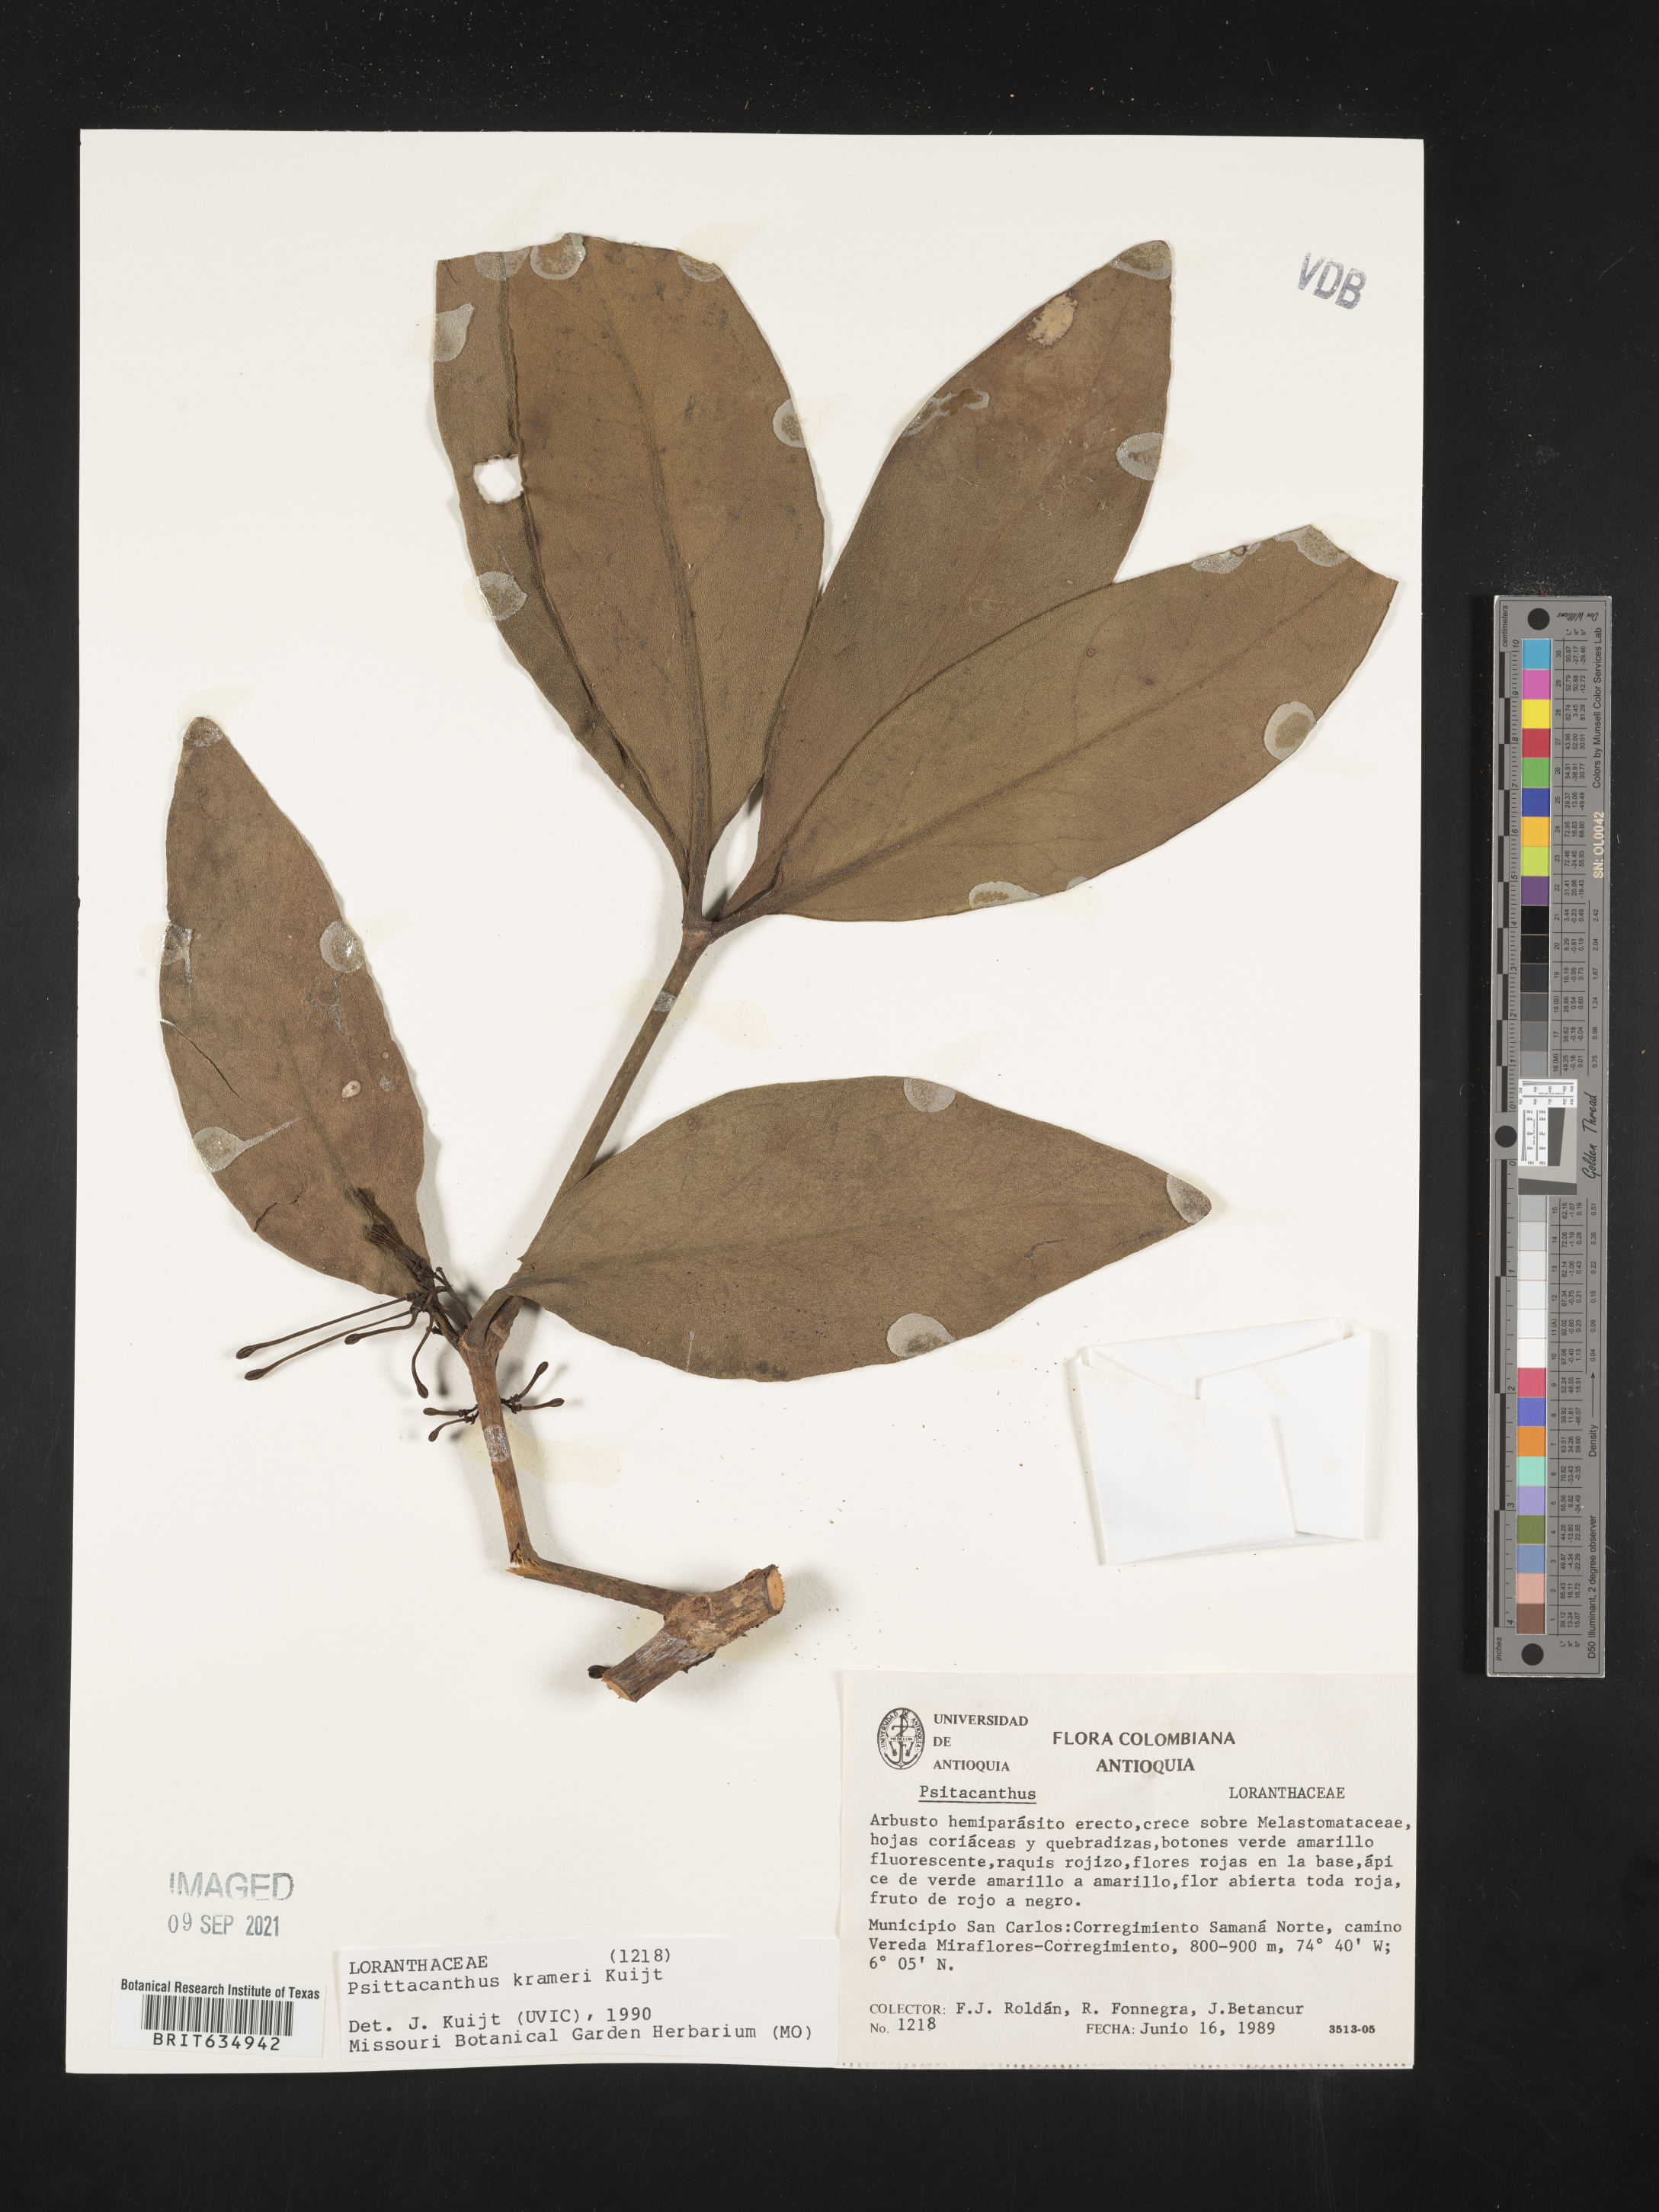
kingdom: Plantae
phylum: Tracheophyta
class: Magnoliopsida
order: Santalales
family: Loranthaceae
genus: Psittacanthus
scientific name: Psittacanthus
